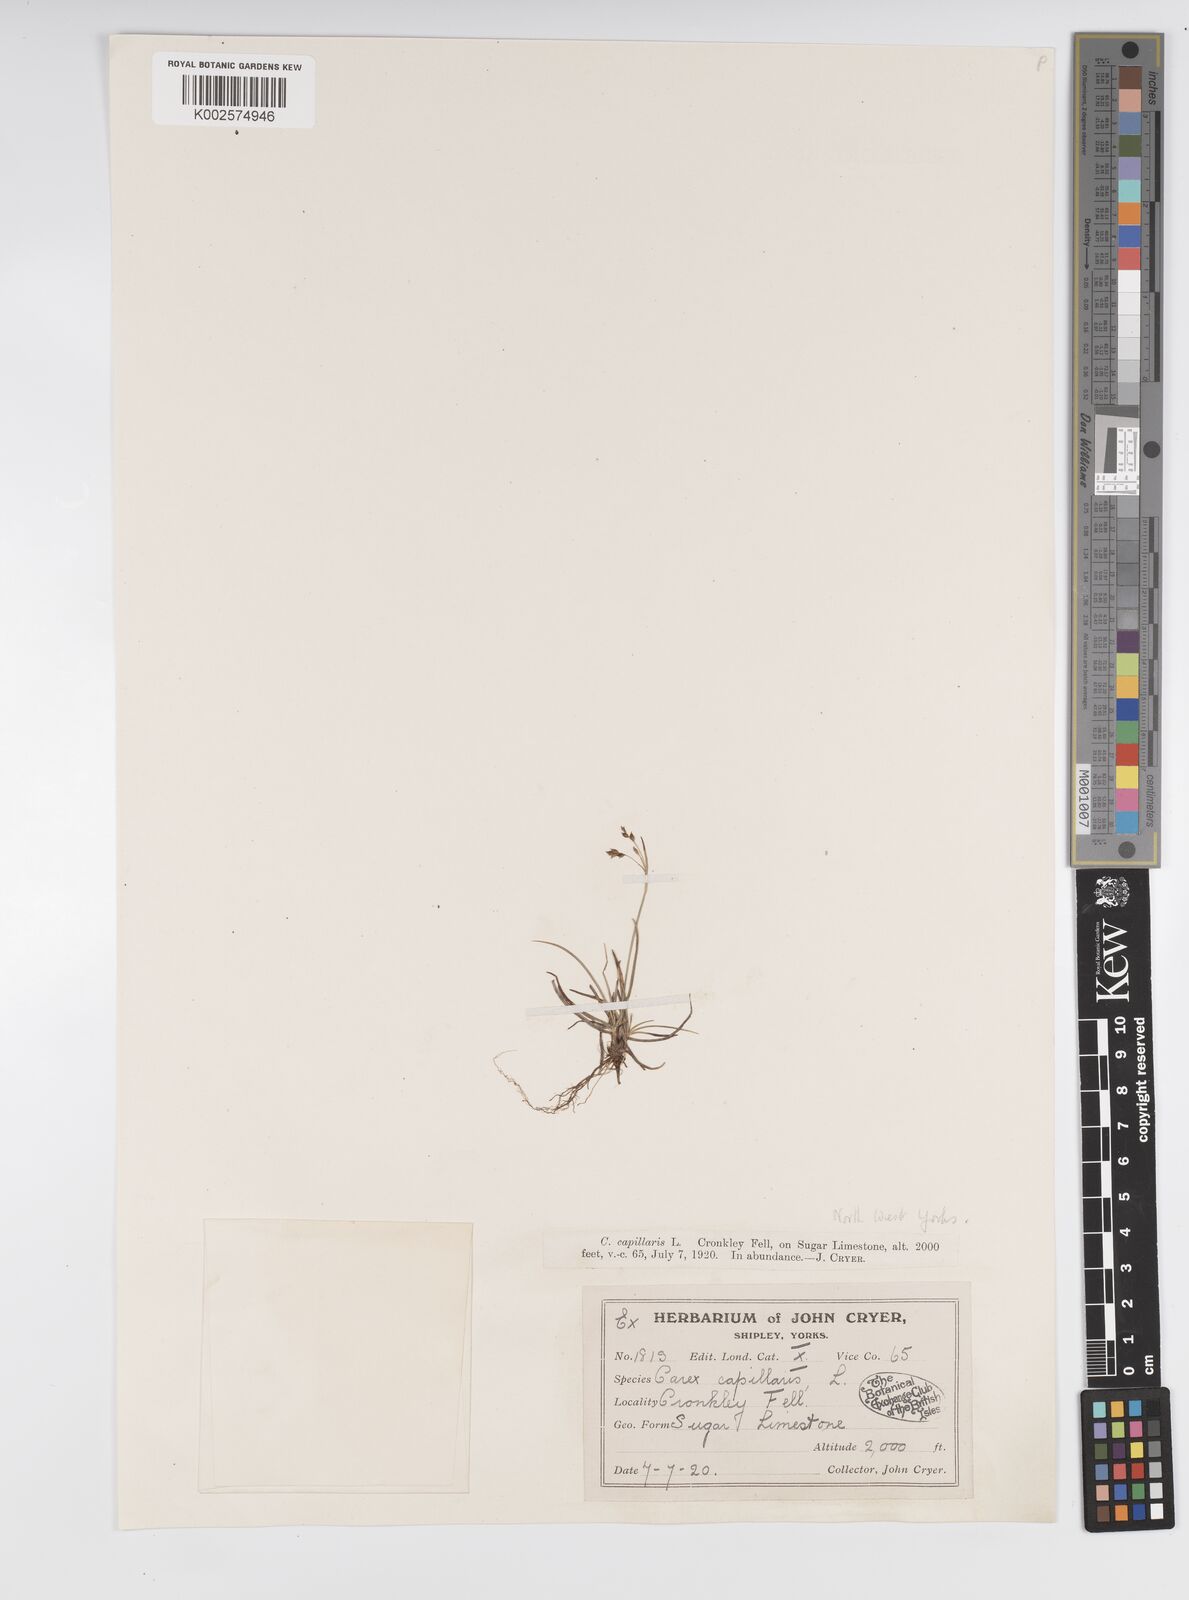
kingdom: Plantae
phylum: Tracheophyta
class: Liliopsida
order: Poales
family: Cyperaceae
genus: Carex
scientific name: Carex capillaris
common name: Hair sedge
